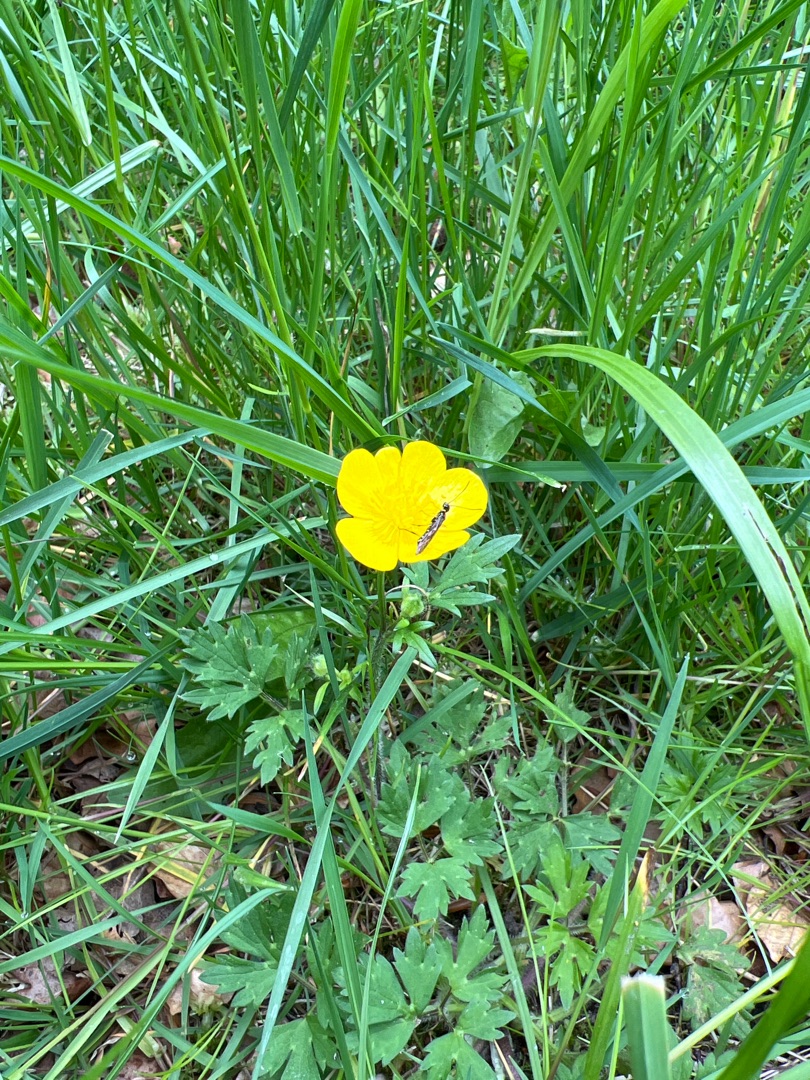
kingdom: Plantae
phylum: Tracheophyta
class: Magnoliopsida
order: Ranunculales
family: Ranunculaceae
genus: Ranunculus
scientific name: Ranunculus repens
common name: Lav ranunkel
